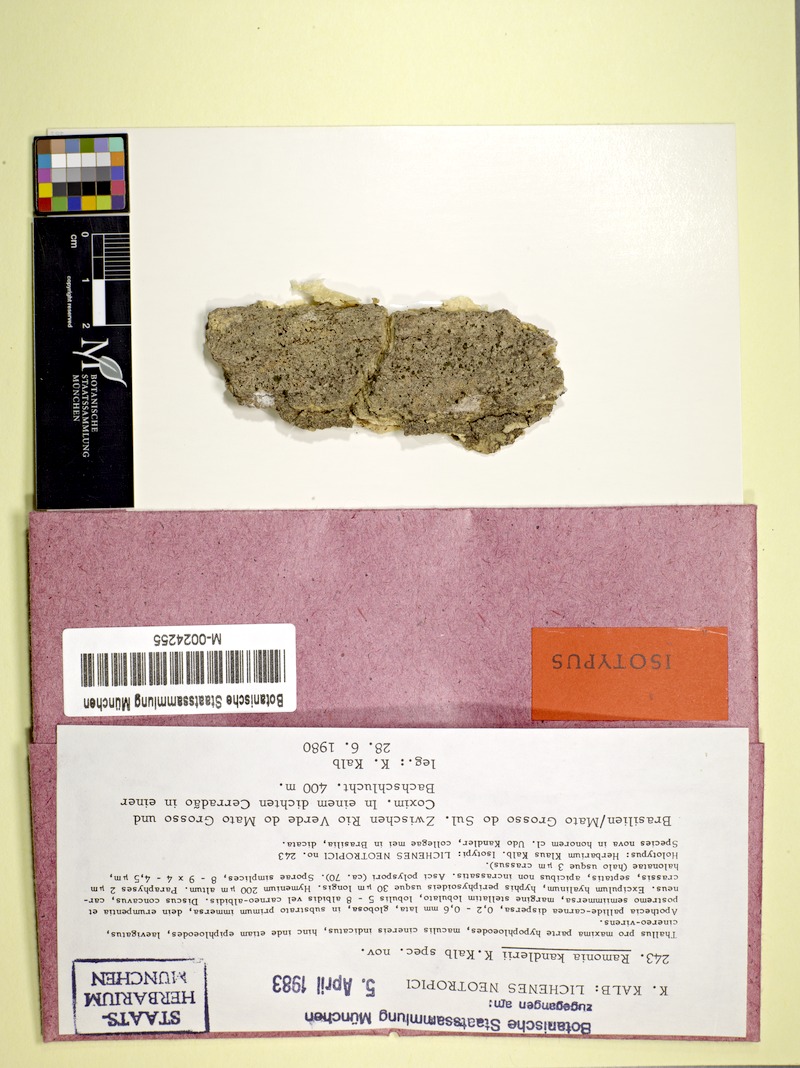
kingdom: Fungi
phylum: Ascomycota
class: Lecanoromycetes
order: Gyalectales
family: Gyalectaceae
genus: Ramonia
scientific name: Ramonia kandlerii
